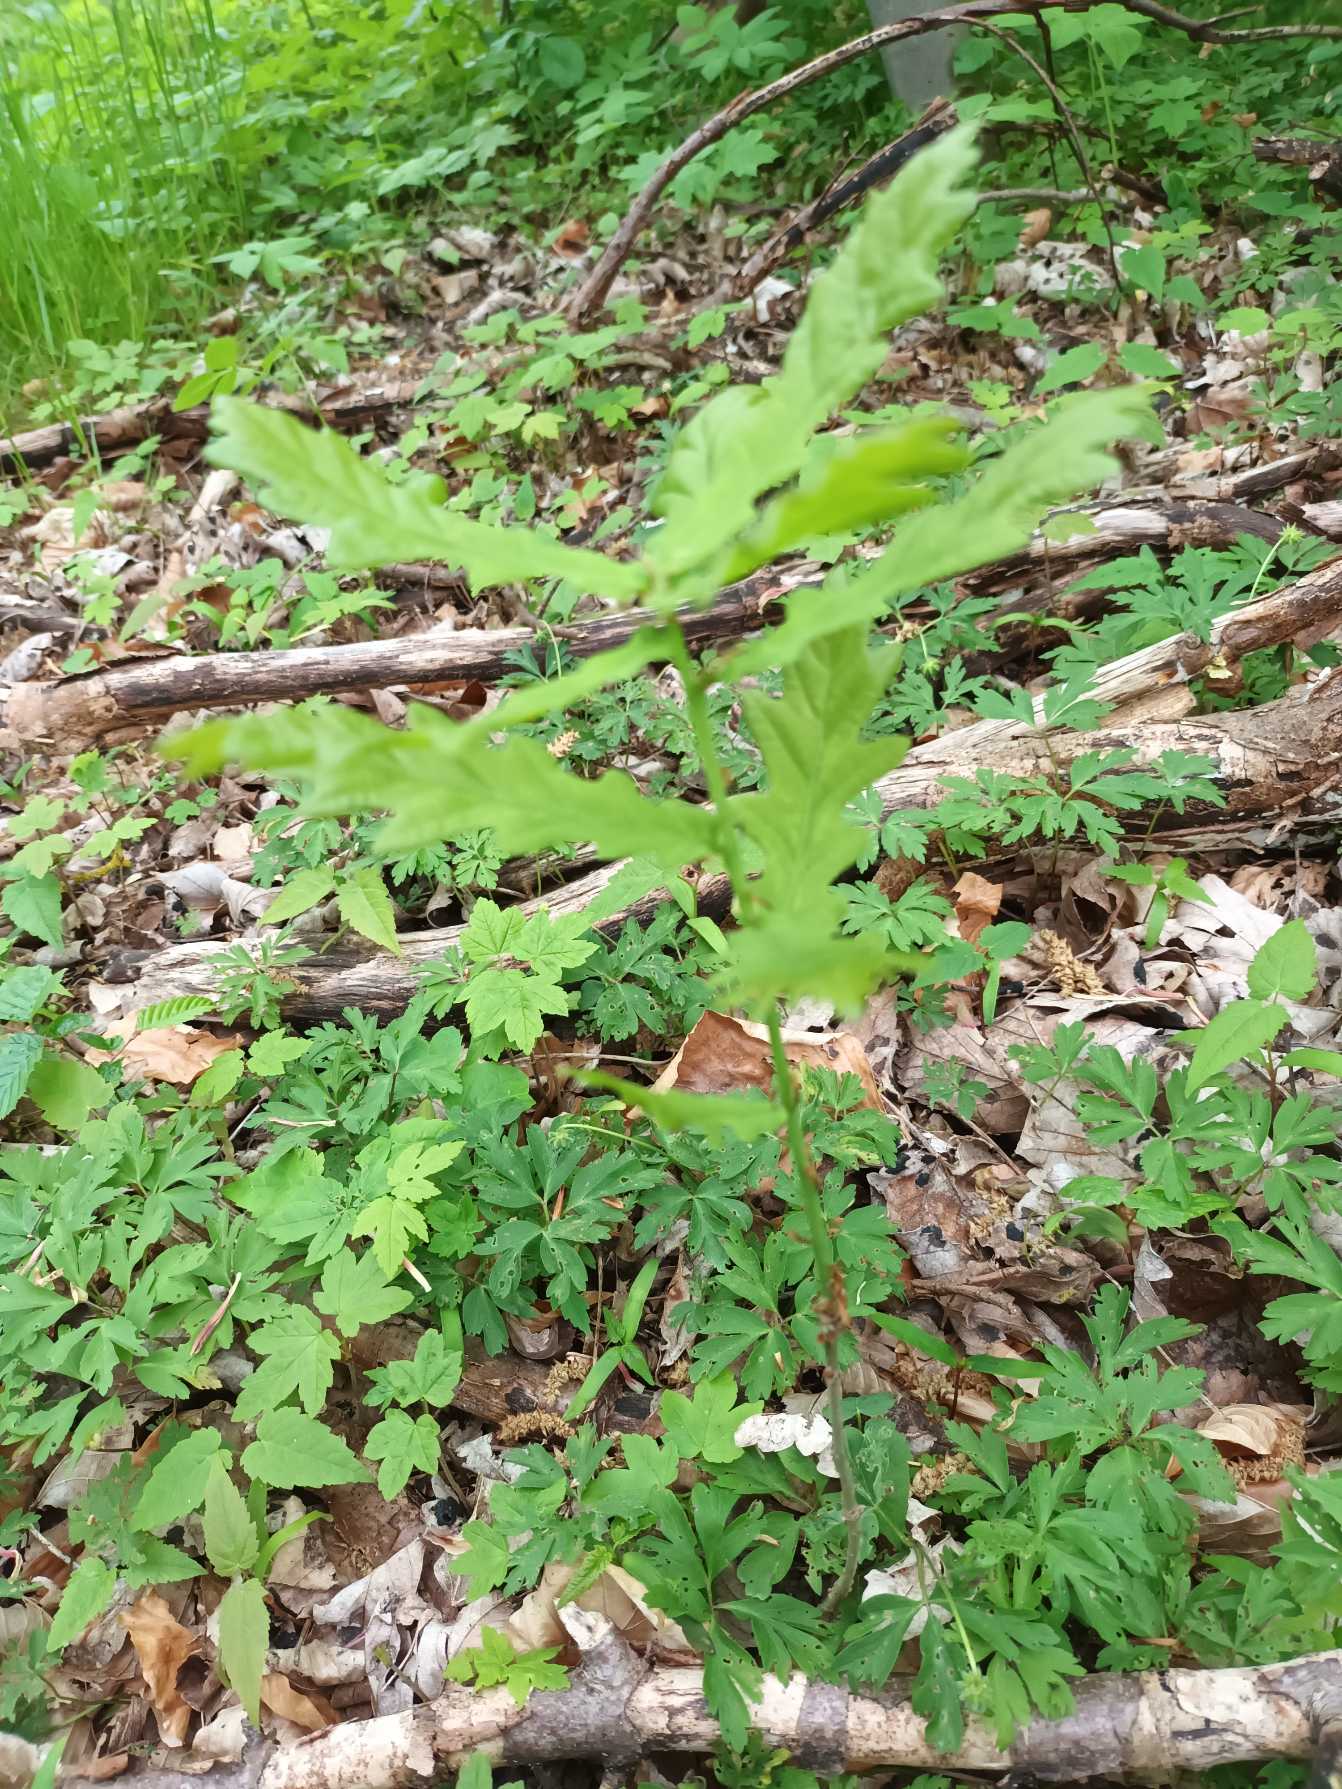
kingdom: Plantae
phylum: Tracheophyta
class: Magnoliopsida
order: Fagales
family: Fagaceae
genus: Quercus
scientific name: Quercus robur
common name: Stilk-eg/almindelig eg
